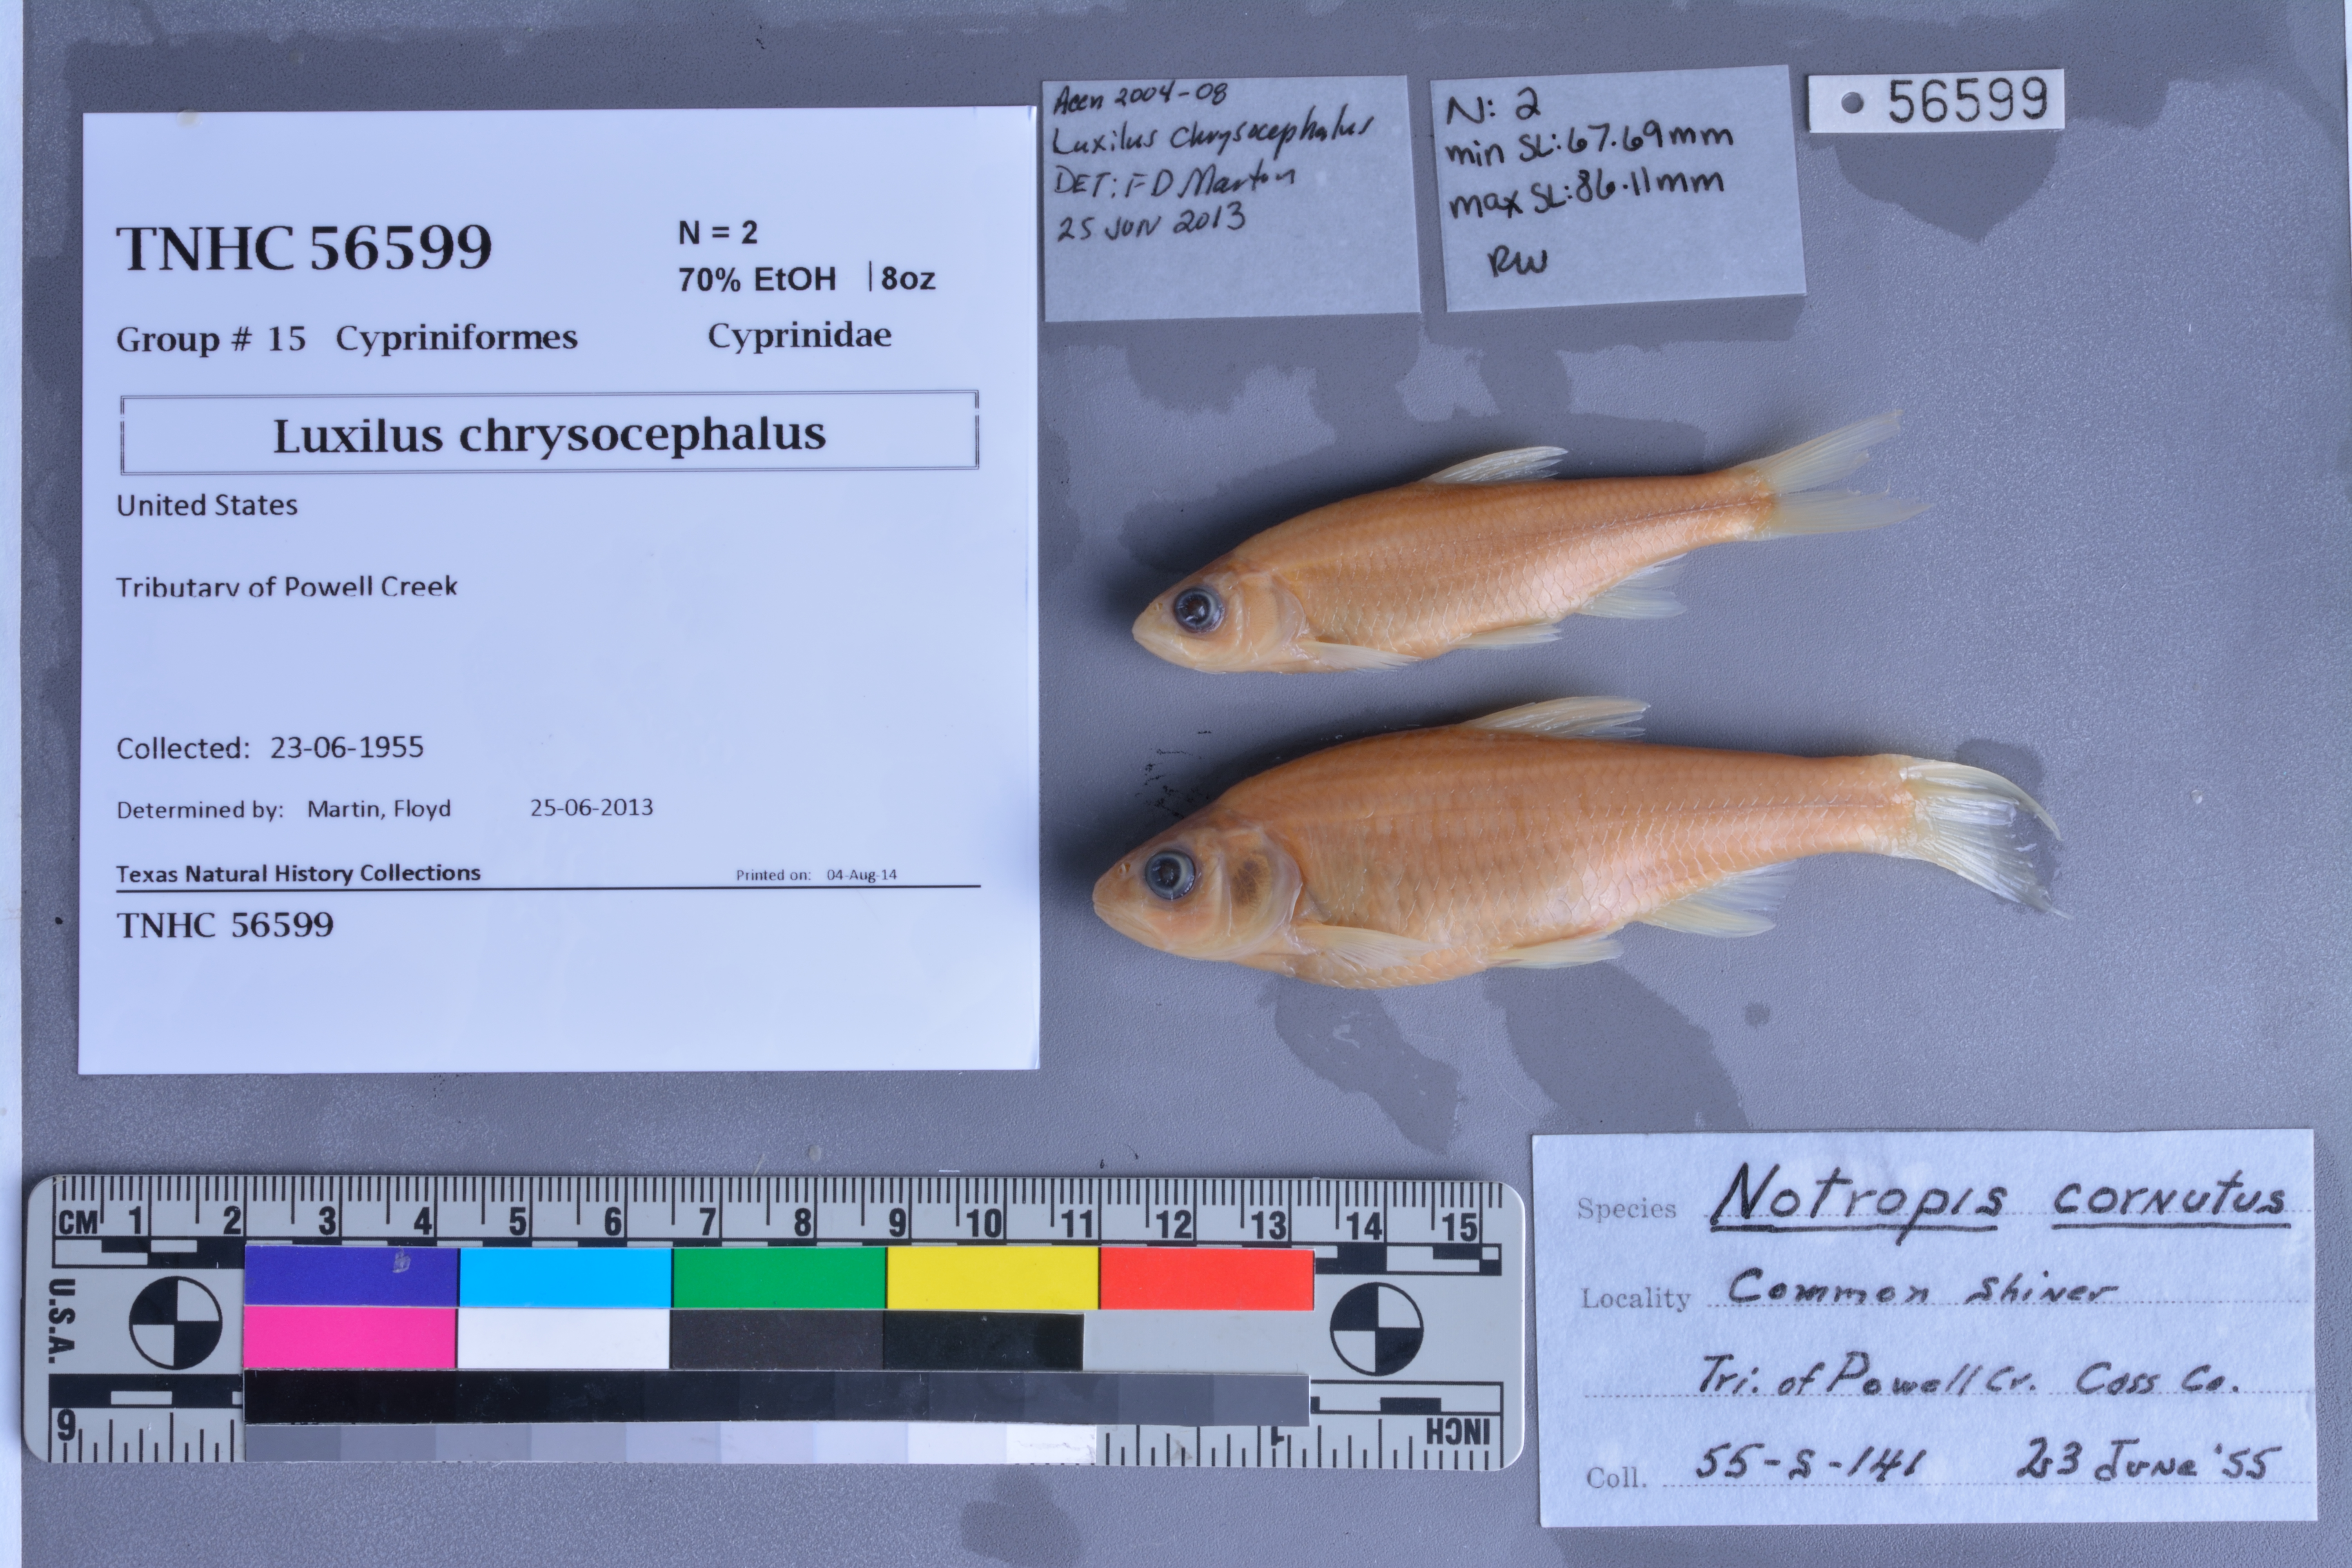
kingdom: Animalia
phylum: Chordata
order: Cypriniformes
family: Cyprinidae
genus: Luxilus
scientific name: Luxilus chrysocephalus
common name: Striped shiner
